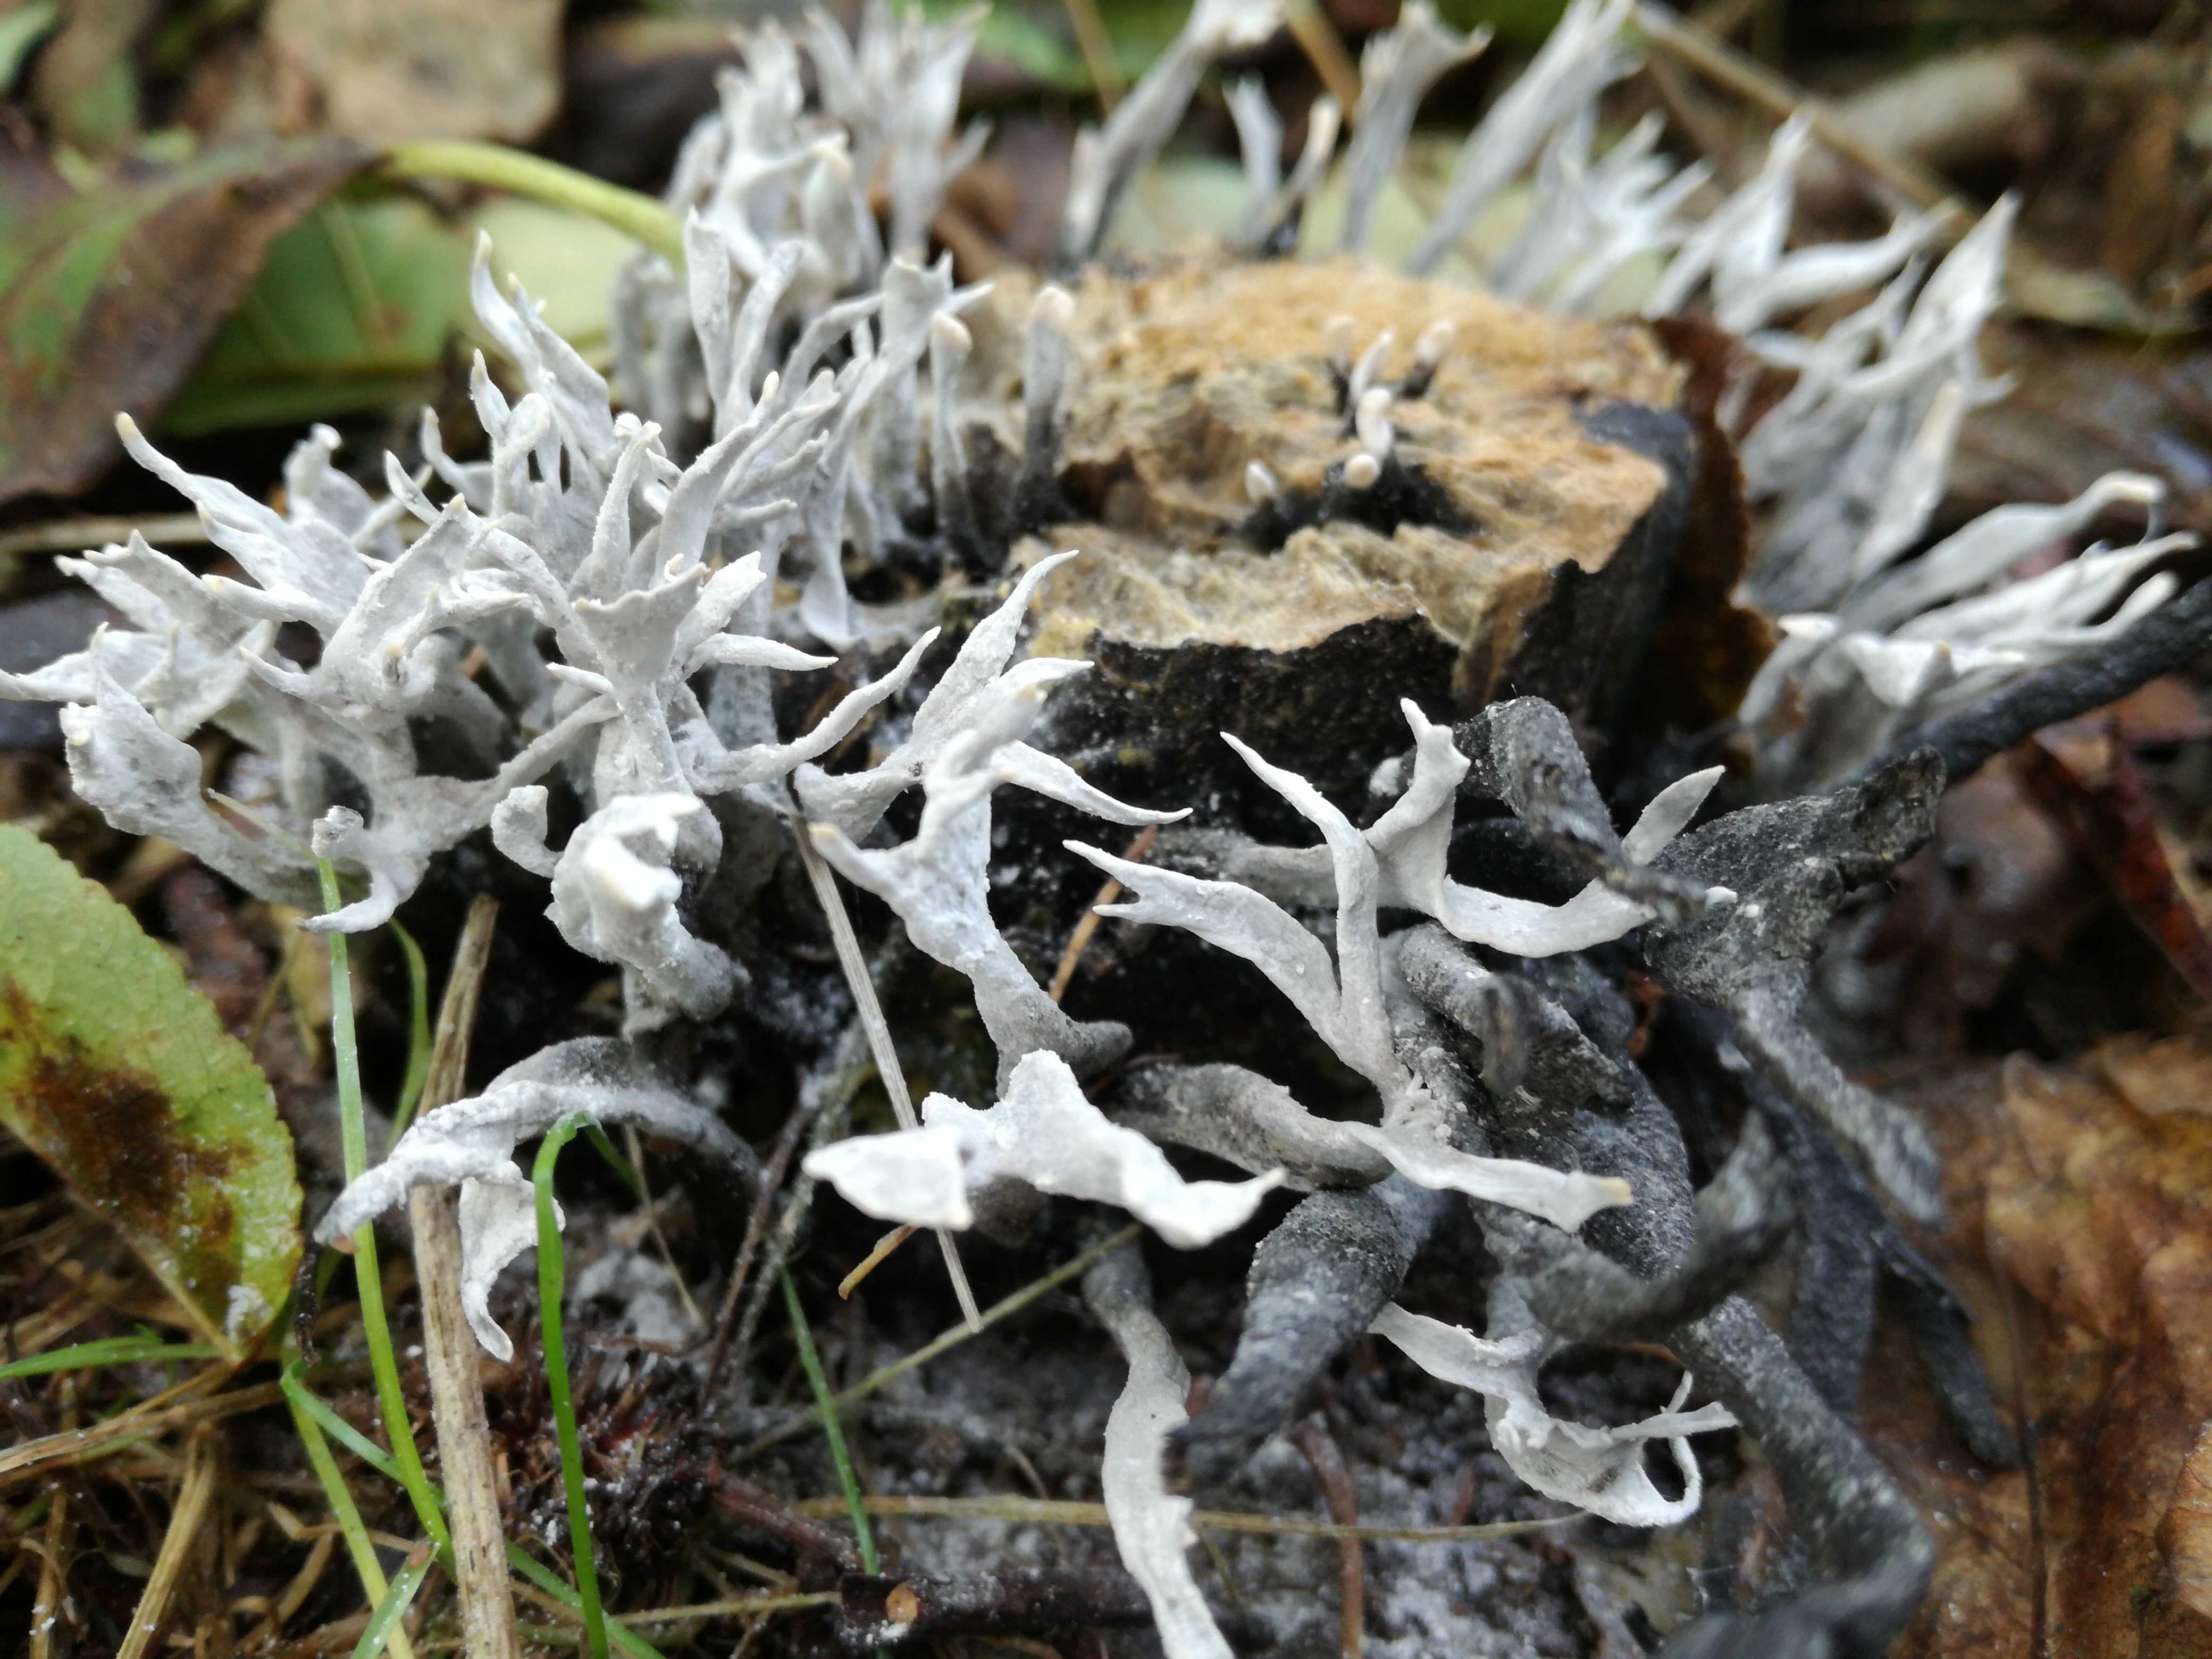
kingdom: Fungi
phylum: Ascomycota
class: Sordariomycetes
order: Xylariales
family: Xylariaceae
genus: Xylaria
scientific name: Xylaria hypoxylon
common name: grenet stødsvamp
